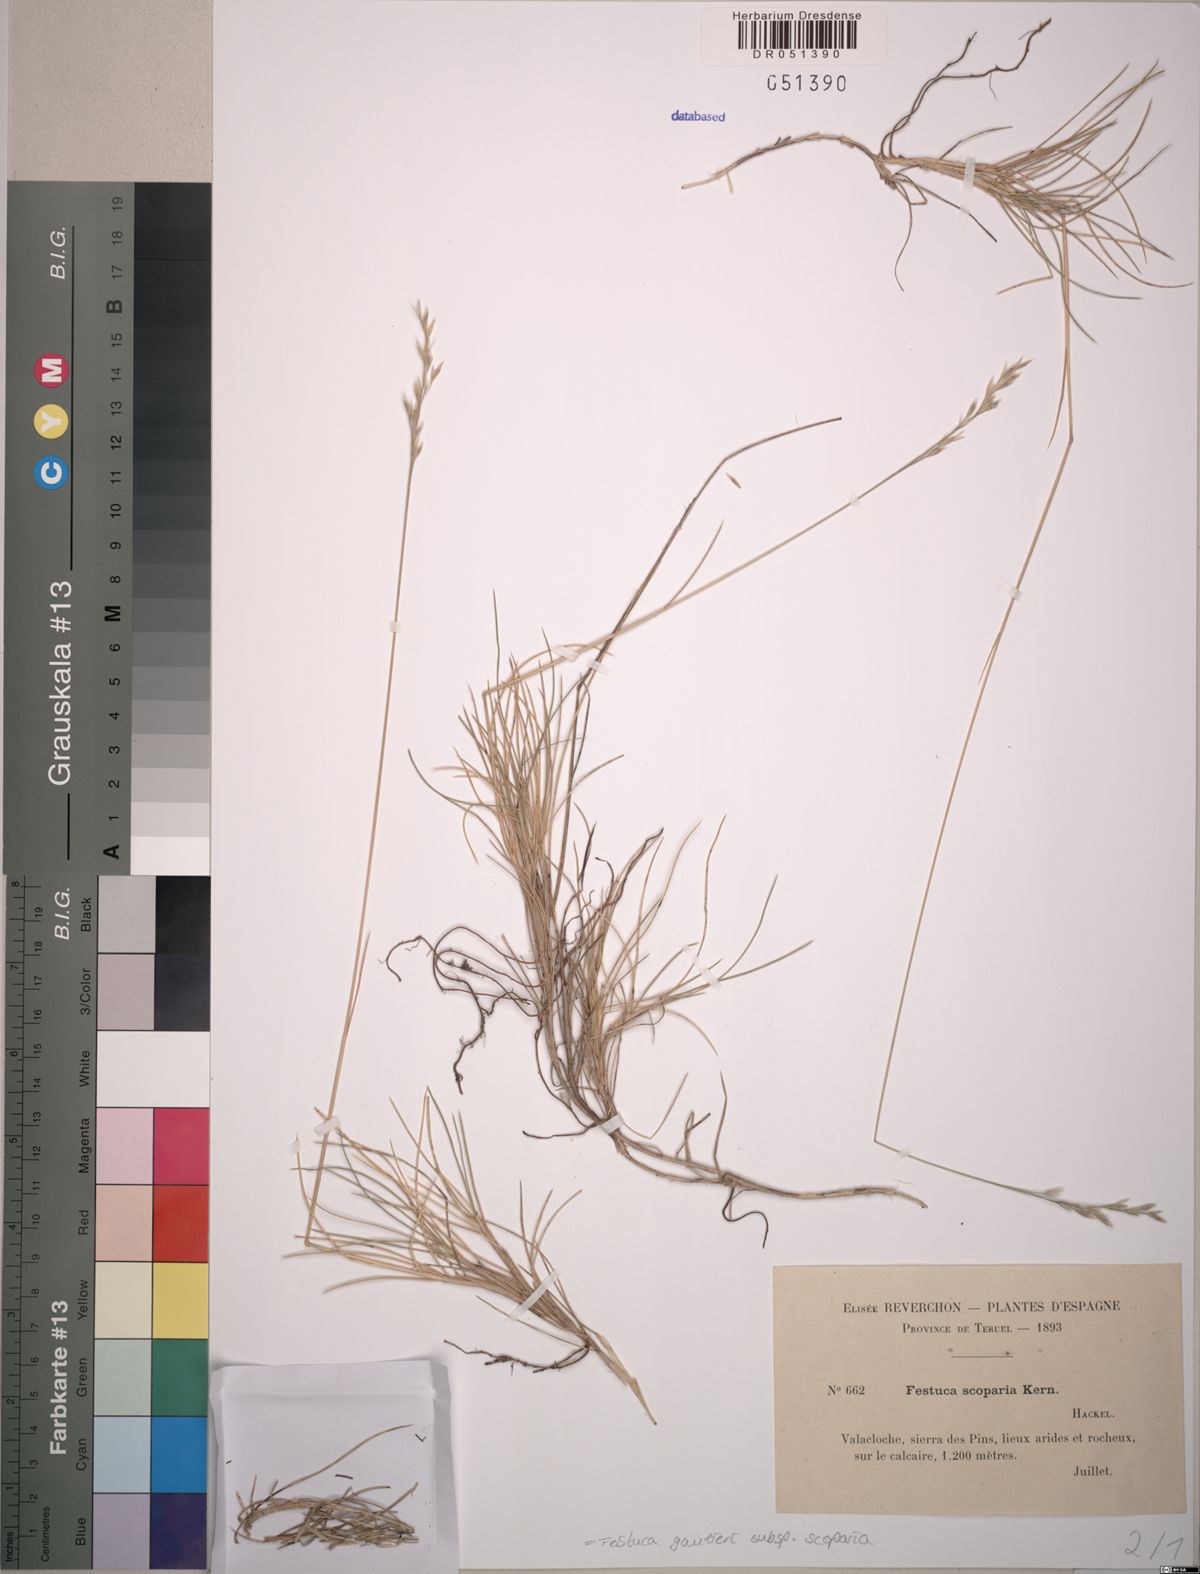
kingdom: Plantae
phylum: Tracheophyta
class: Liliopsida
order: Poales
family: Poaceae
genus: Festuca
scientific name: Festuca gautieri
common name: Spiky fescue
